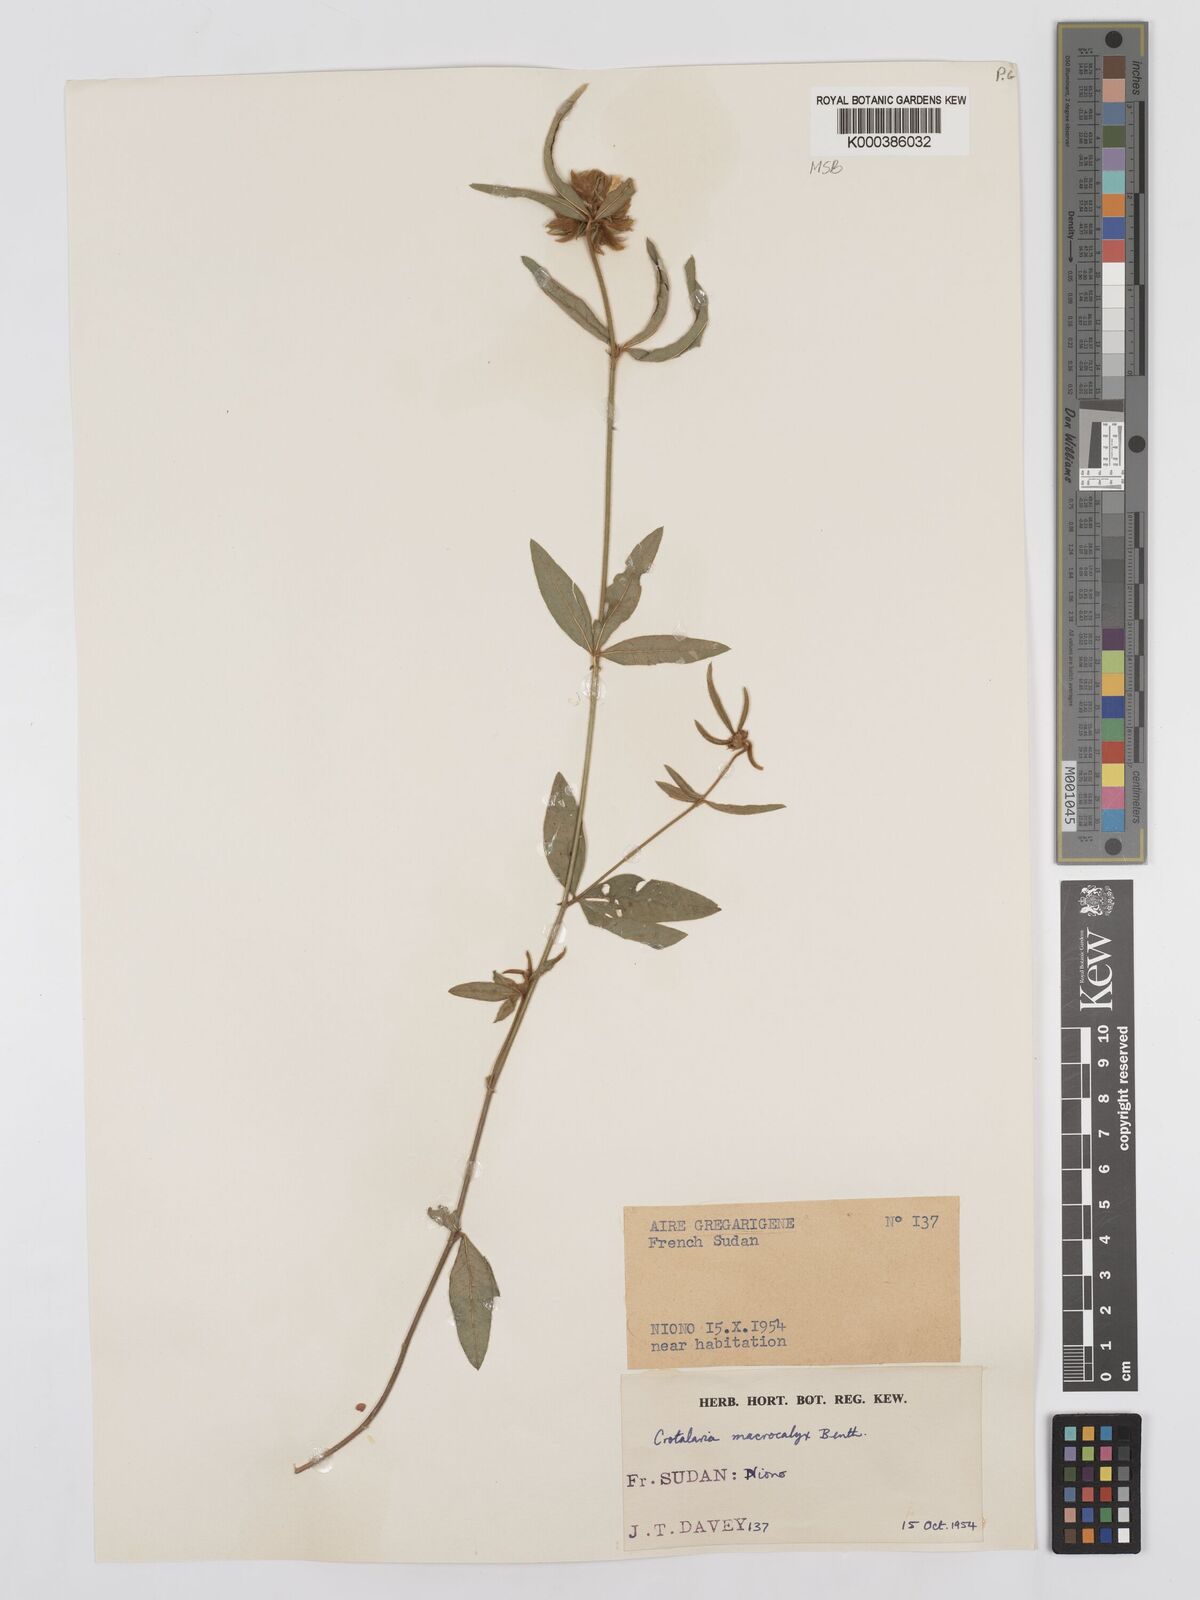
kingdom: Plantae
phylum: Tracheophyta
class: Magnoliopsida
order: Fabales
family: Fabaceae
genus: Crotalaria
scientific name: Crotalaria macrocalyx
